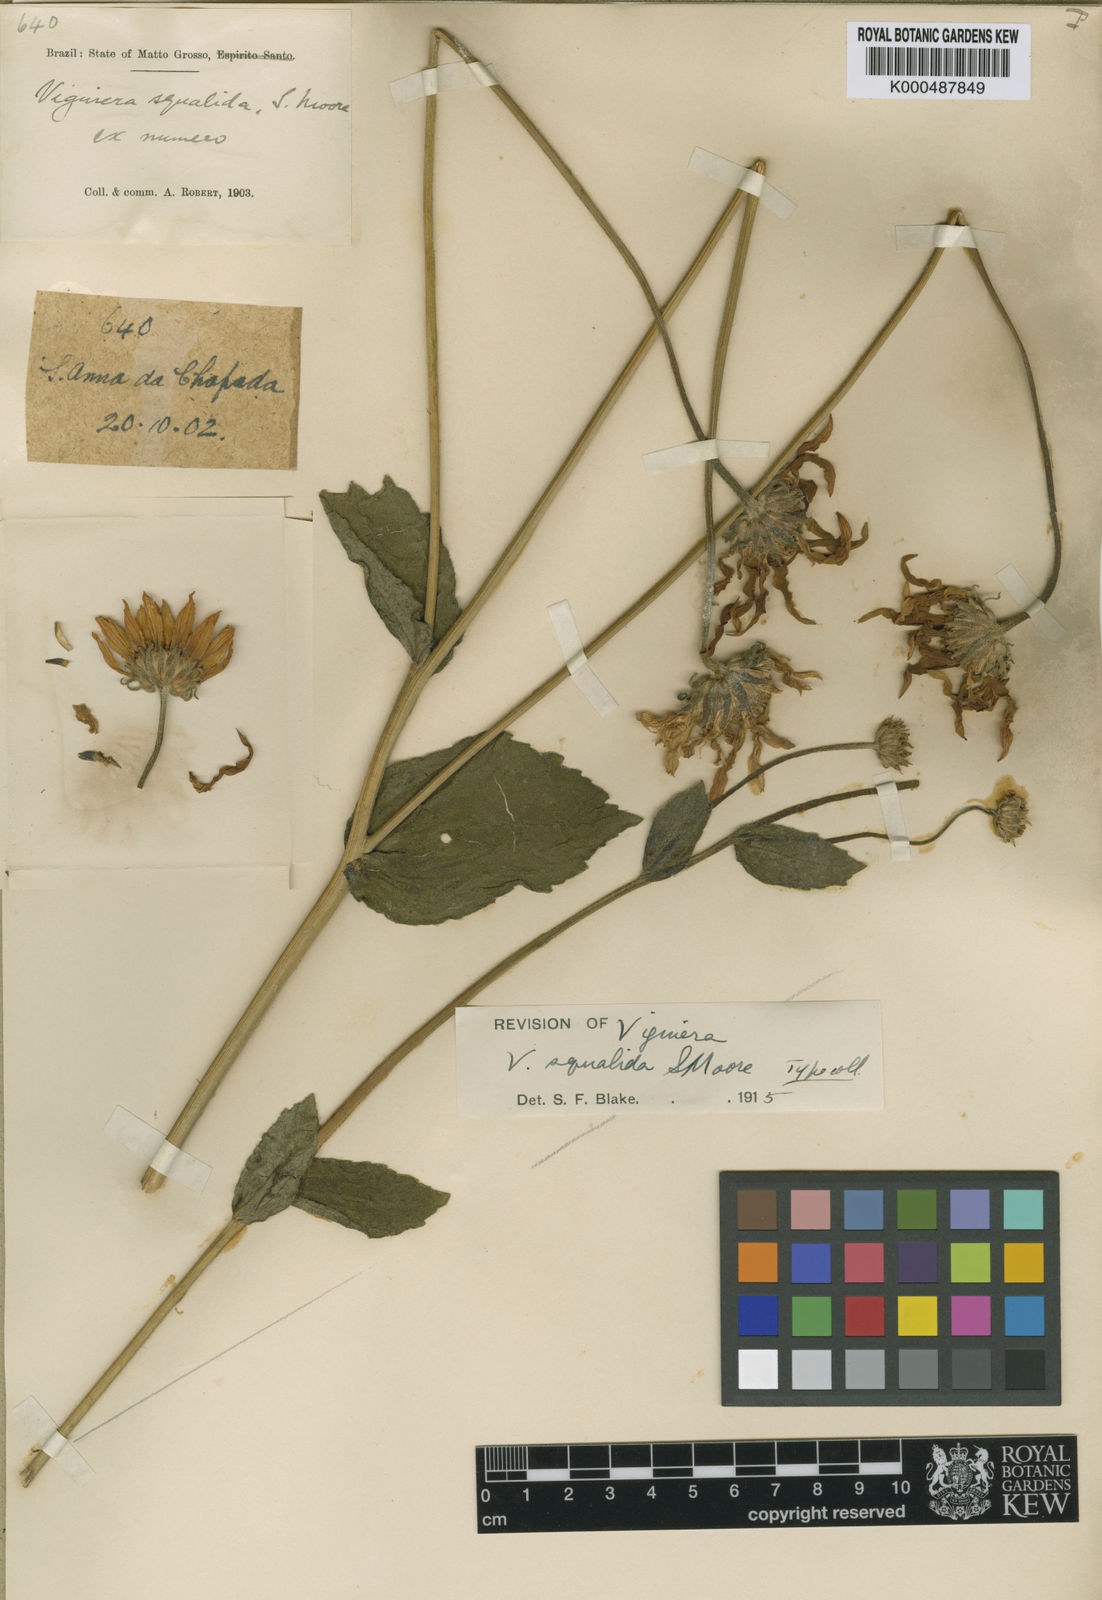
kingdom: Plantae
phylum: Tracheophyta
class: Magnoliopsida
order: Asterales
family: Asteraceae
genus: Aldama
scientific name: Aldama squalida
